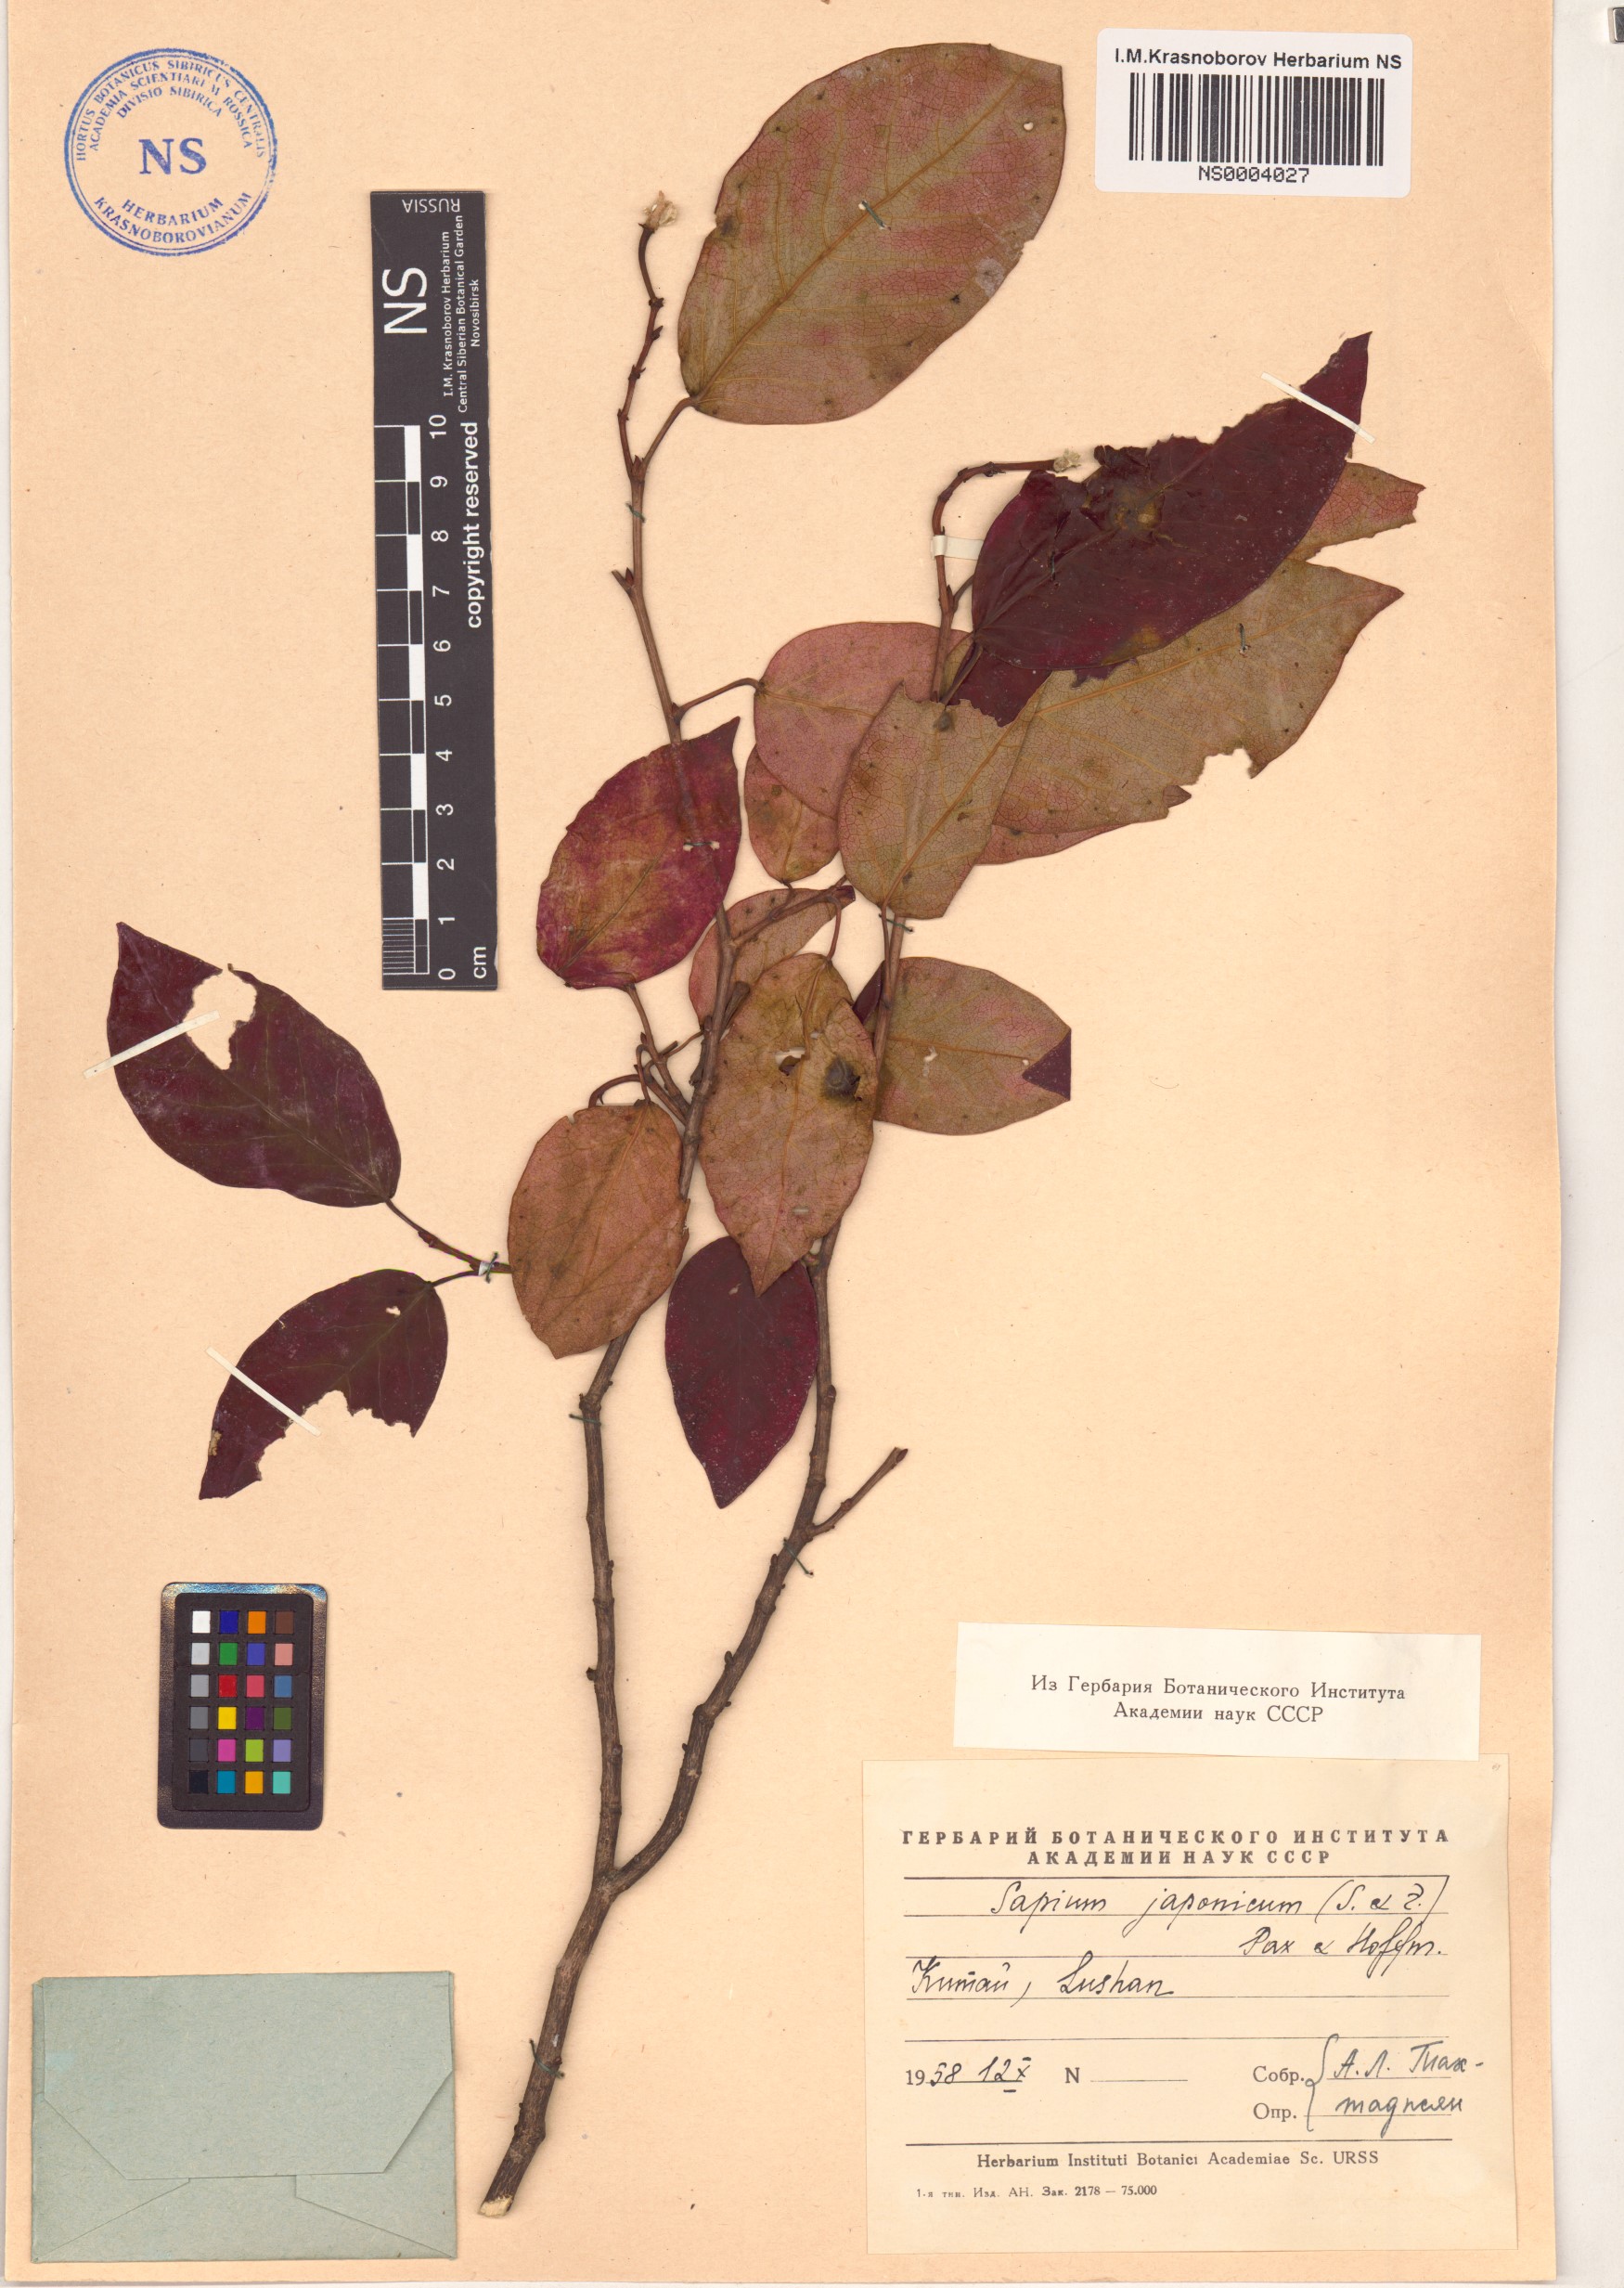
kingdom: Plantae
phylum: Tracheophyta
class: Magnoliopsida
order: Malpighiales
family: Euphorbiaceae
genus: Neoshirakia
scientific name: Neoshirakia japonica
